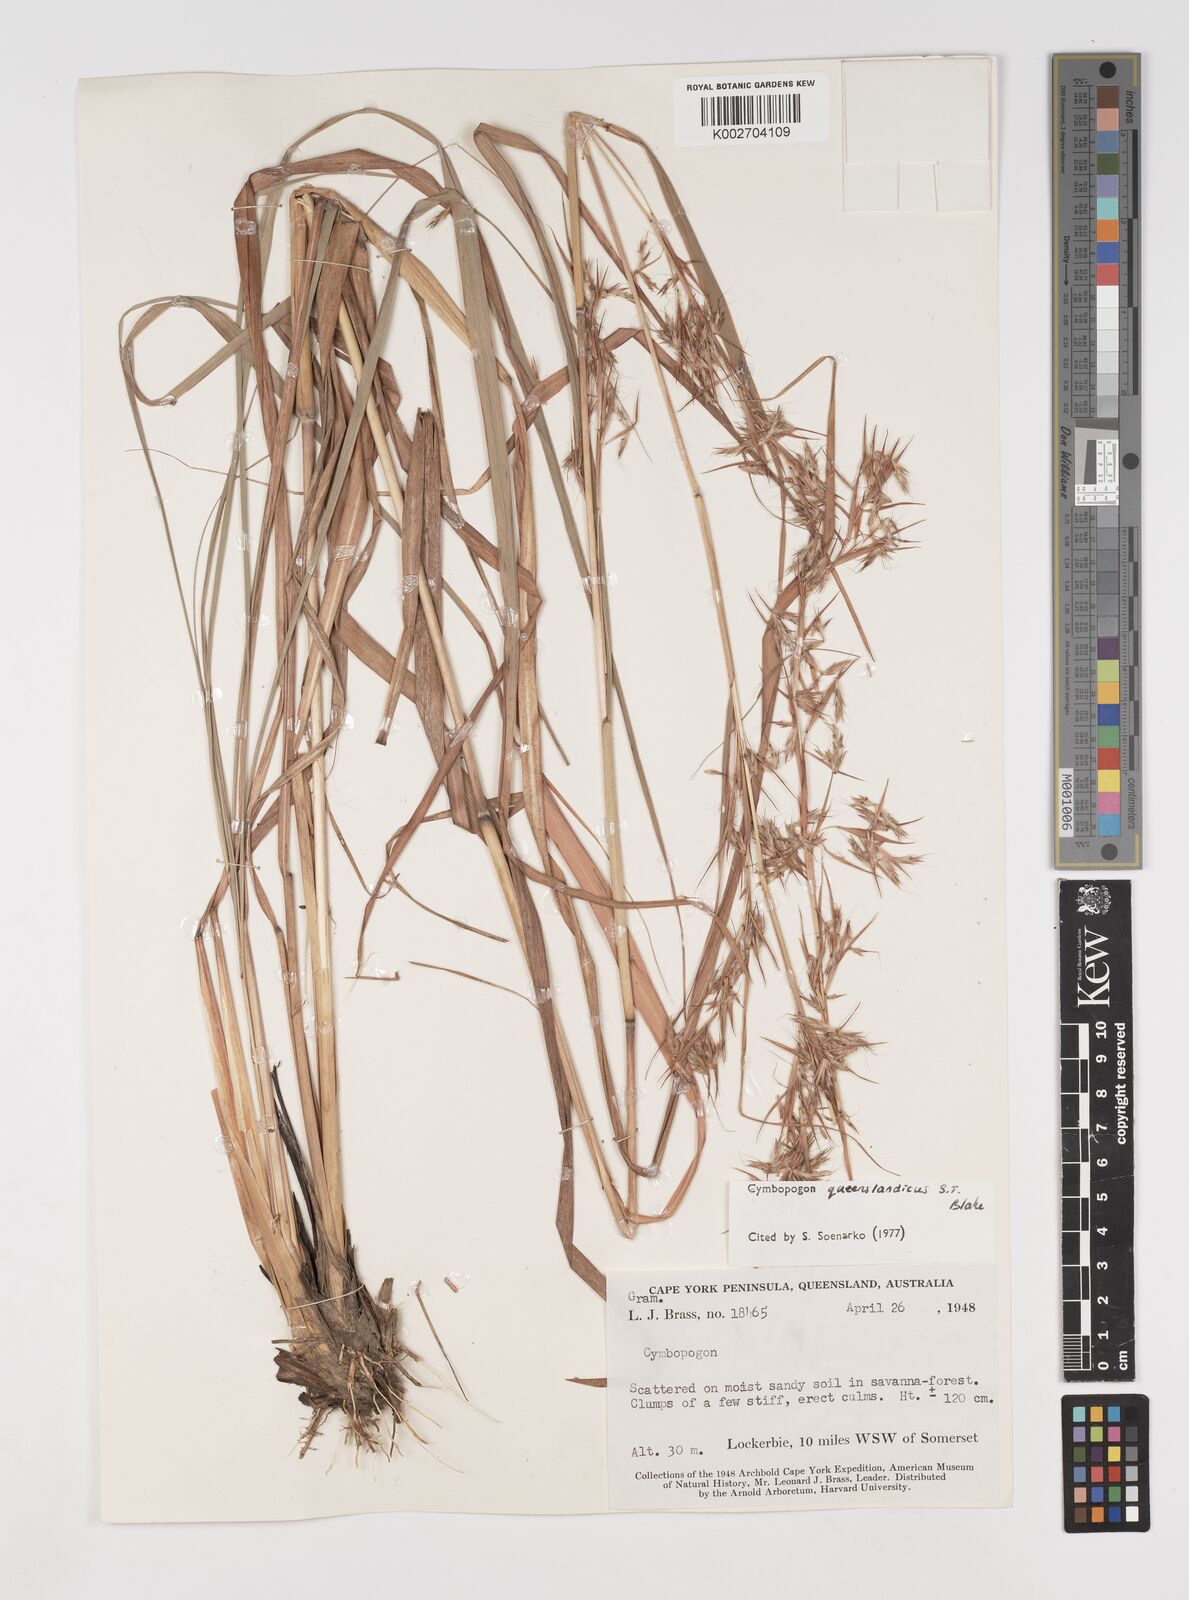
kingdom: Plantae
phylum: Tracheophyta
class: Liliopsida
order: Poales
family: Poaceae
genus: Cymbopogon
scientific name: Cymbopogon queenslandicus
